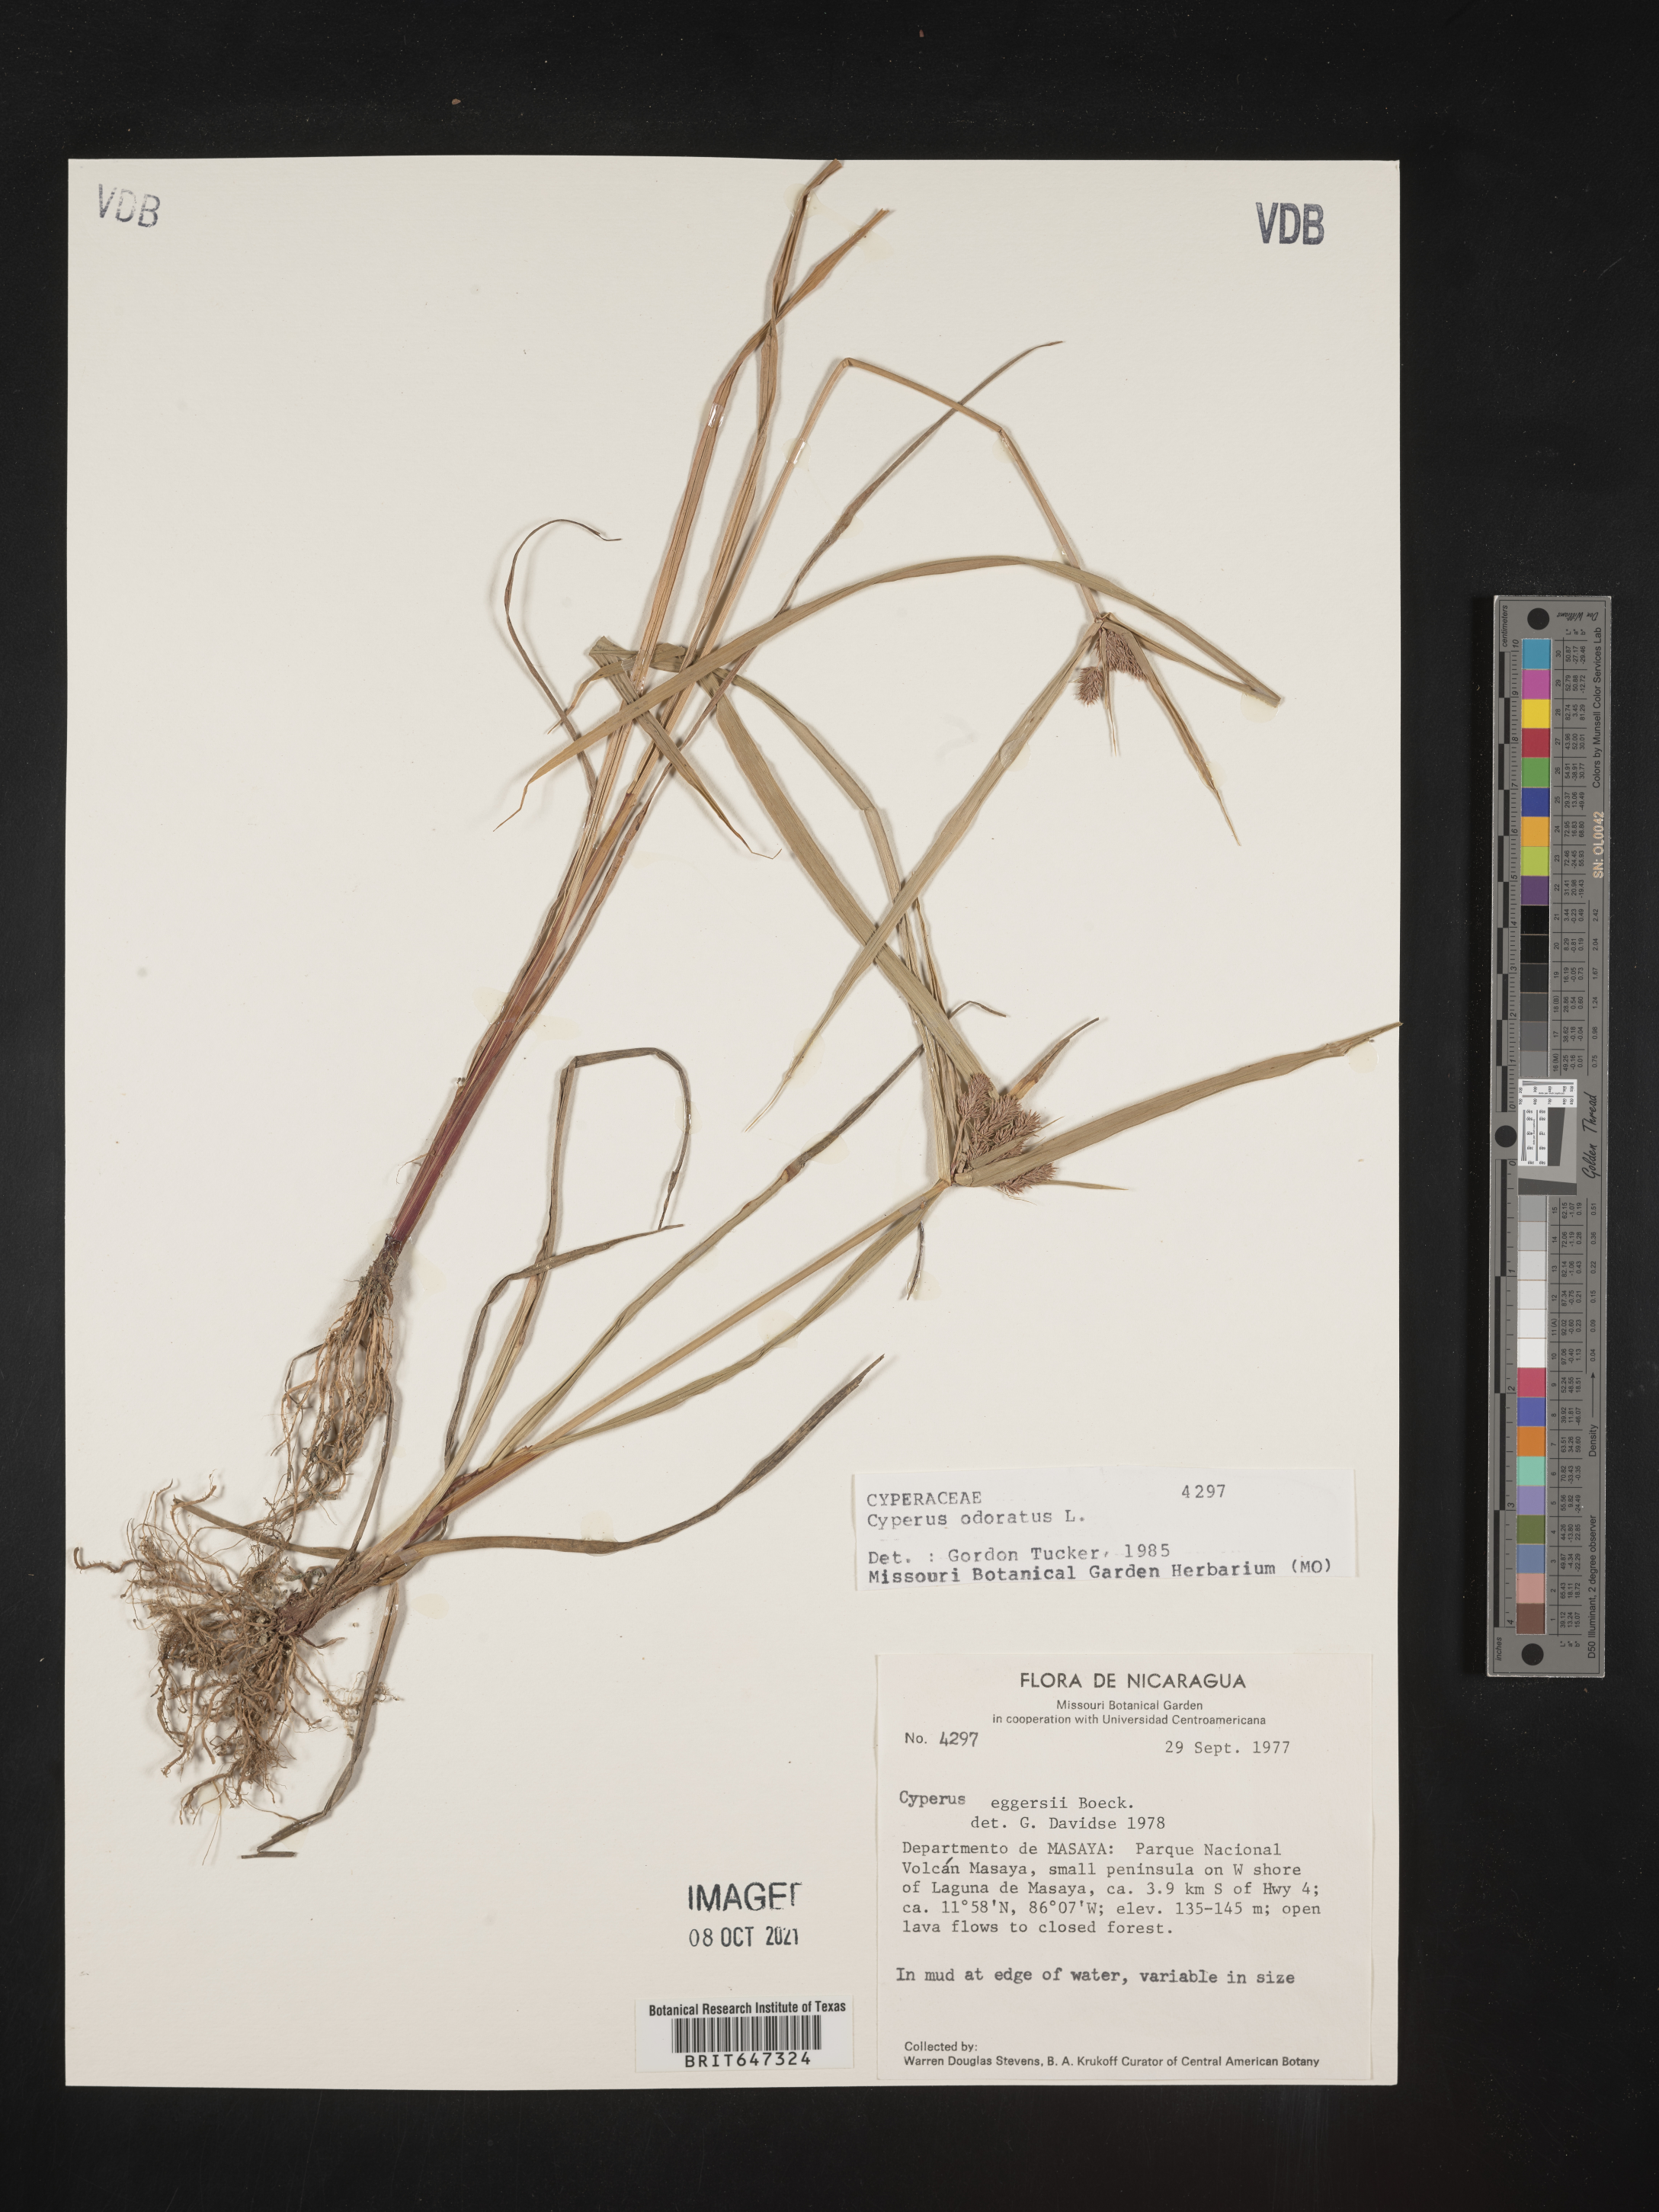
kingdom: Plantae
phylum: Tracheophyta
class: Liliopsida
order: Poales
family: Cyperaceae
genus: Cyperus
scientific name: Cyperus odoratus
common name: Fragrant flatsedge
